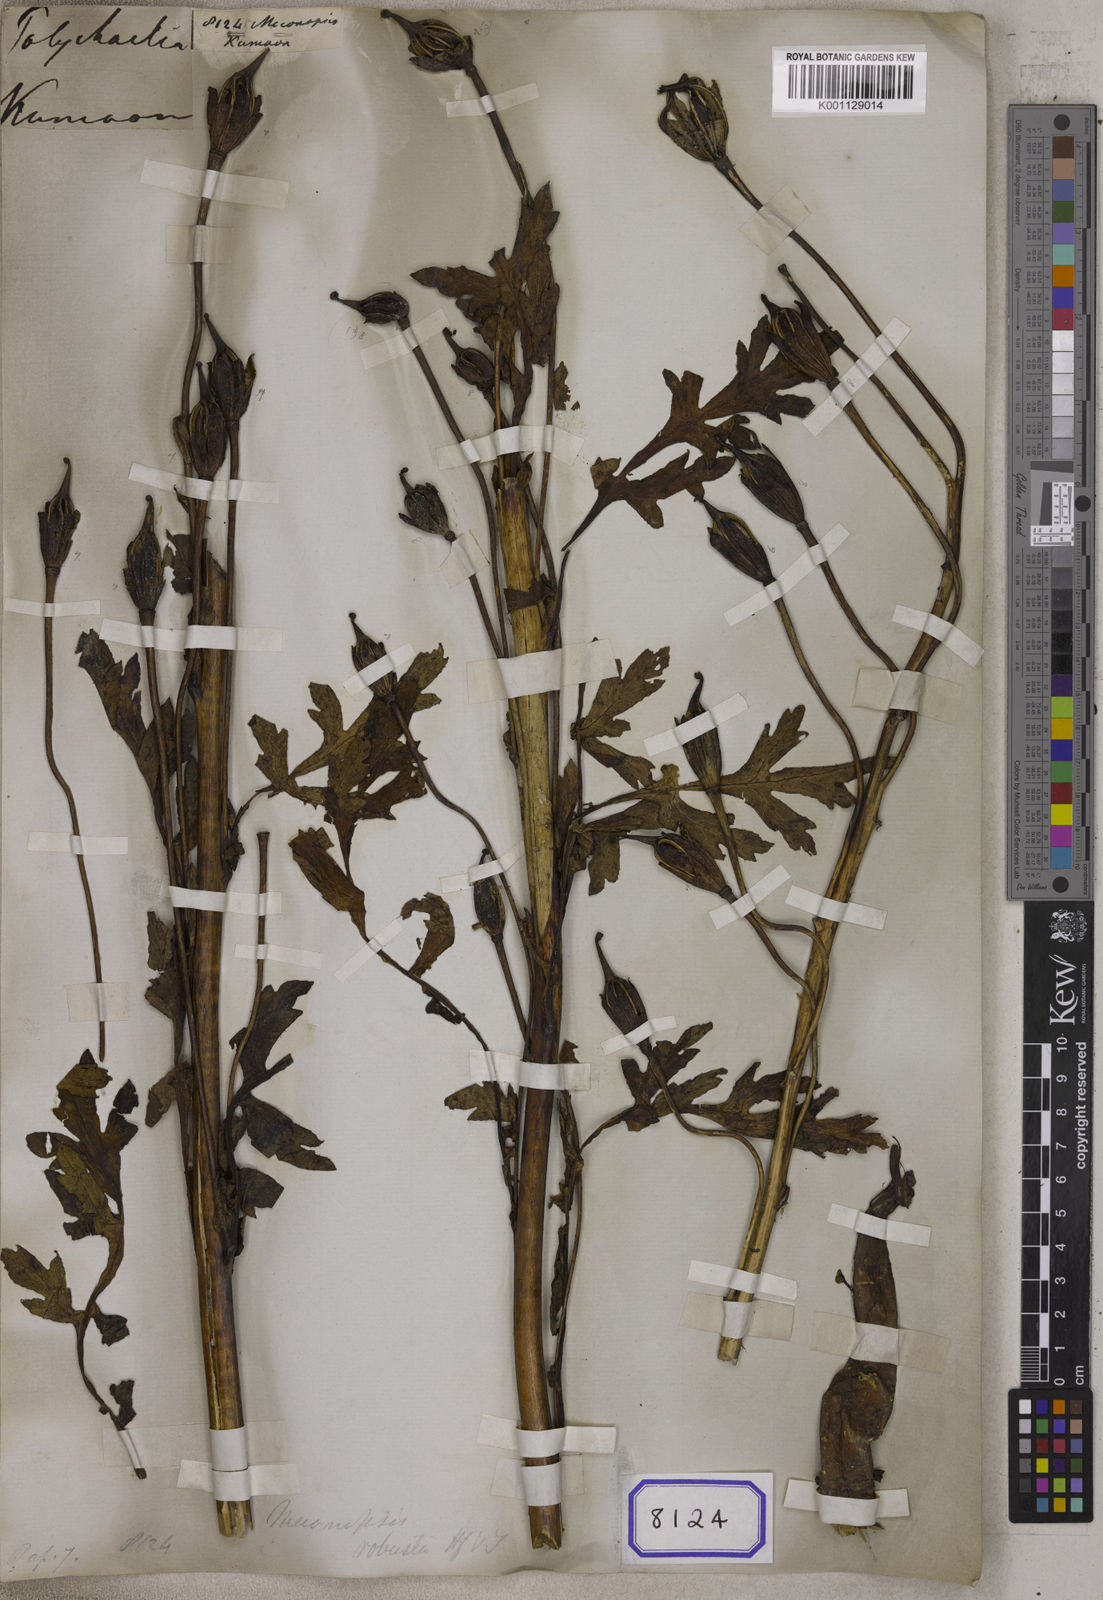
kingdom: Plantae
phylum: Tracheophyta
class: Magnoliopsida
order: Ranunculales
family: Papaveraceae
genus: Meconopsis
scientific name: Meconopsis
